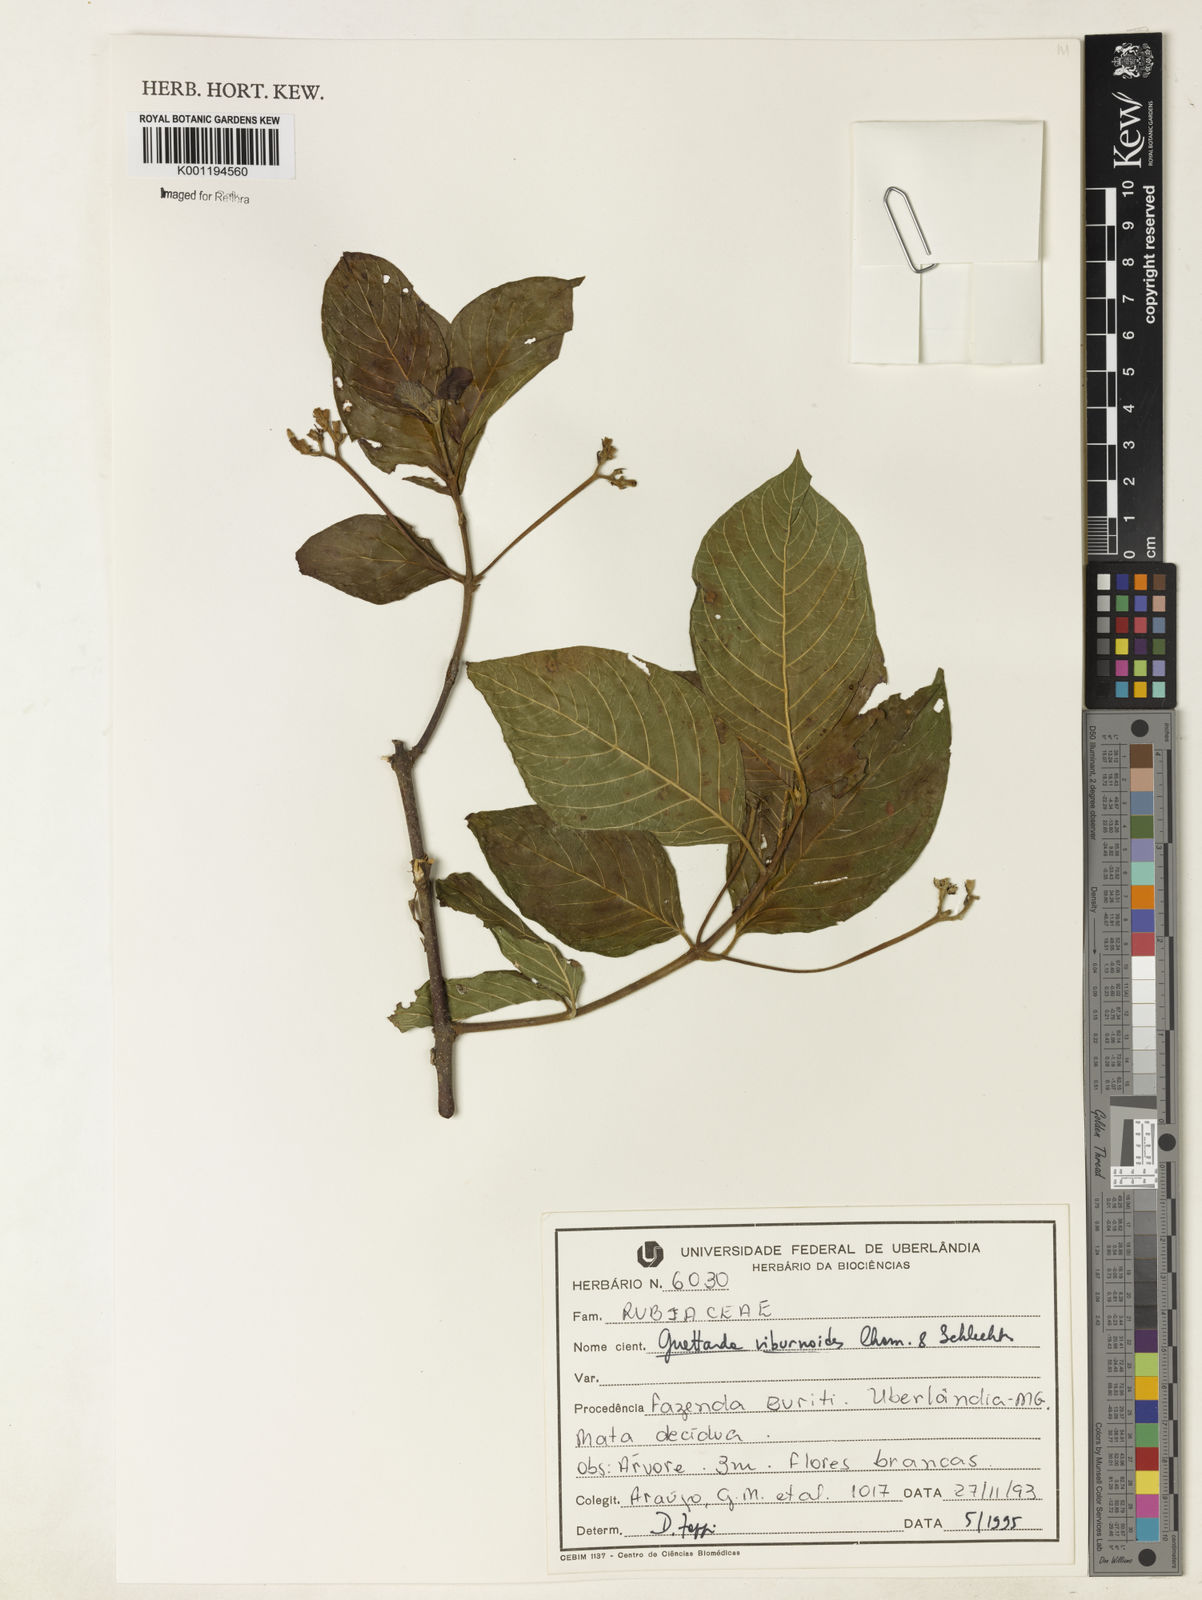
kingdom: Plantae
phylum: Tracheophyta
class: Magnoliopsida
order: Gentianales
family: Rubiaceae
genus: Guettarda
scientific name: Guettarda viburnoides
